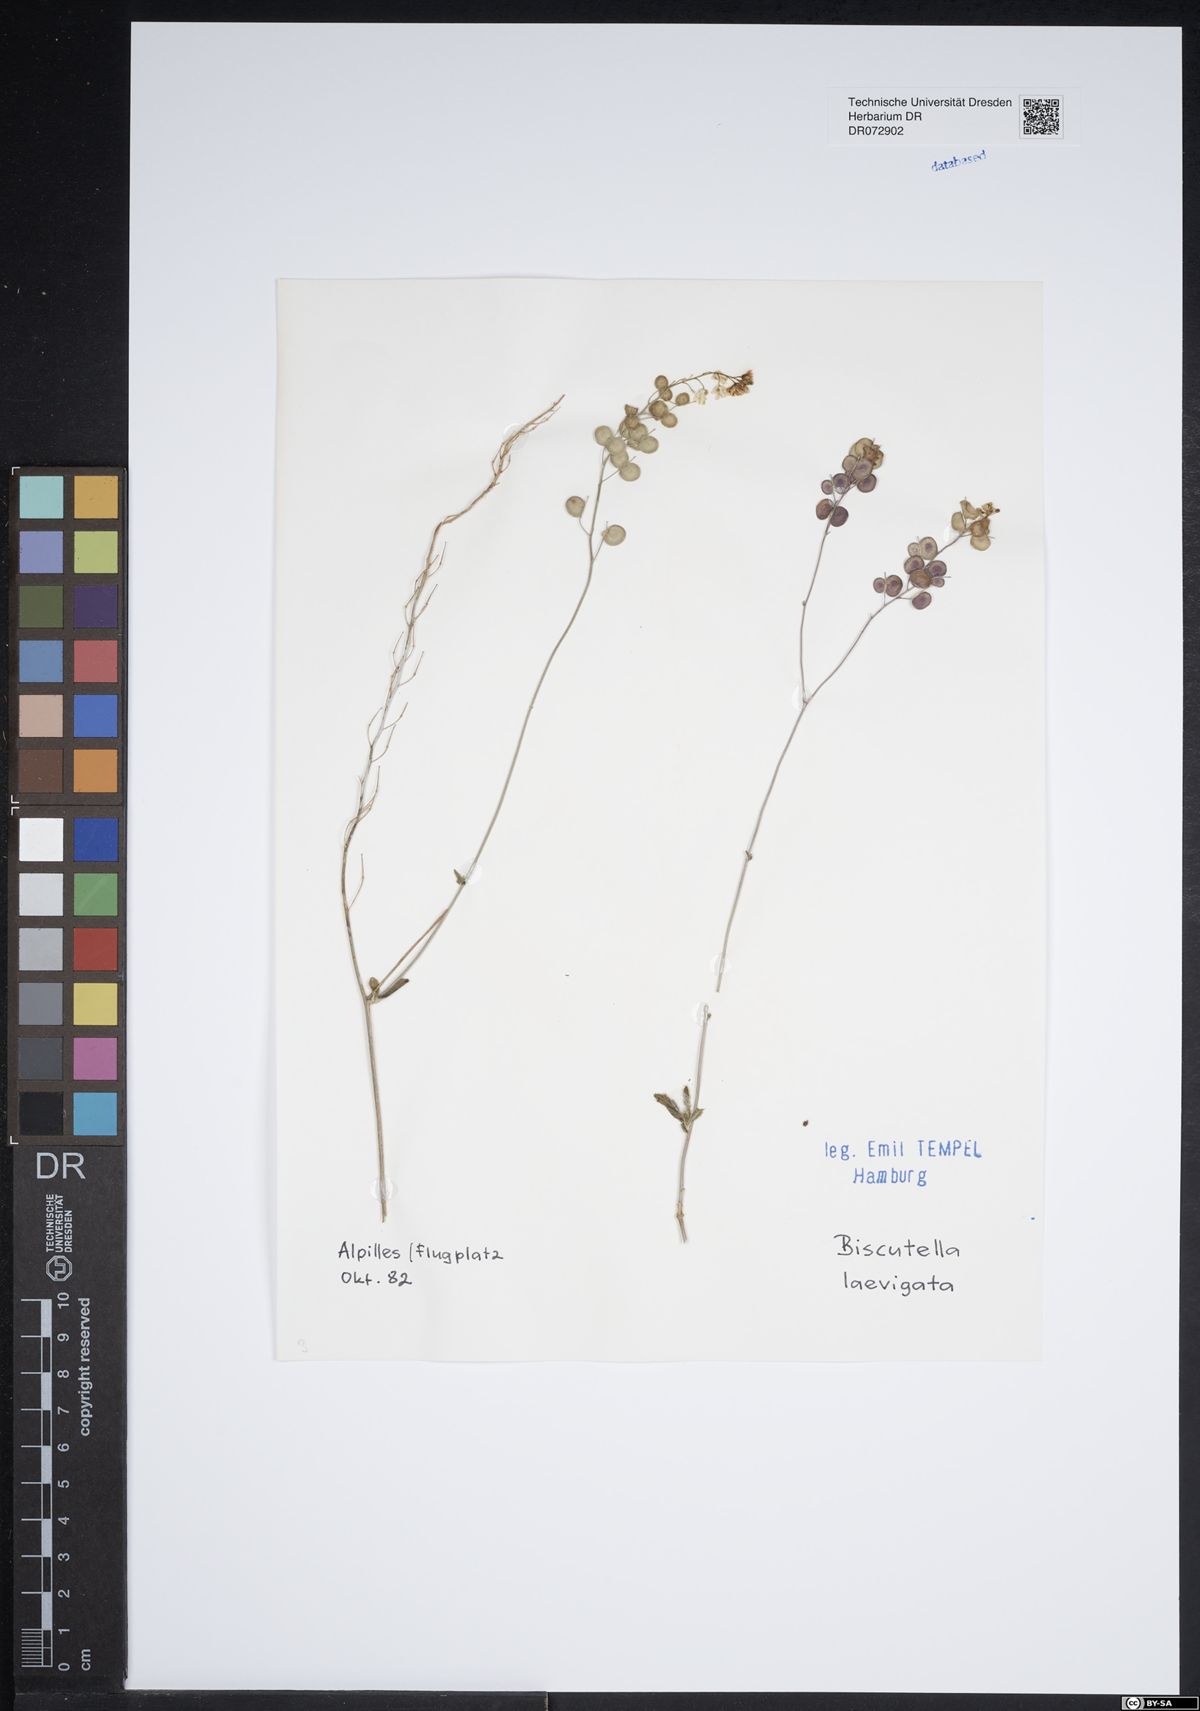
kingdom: Plantae
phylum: Tracheophyta
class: Magnoliopsida
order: Brassicales
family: Brassicaceae
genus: Biscutella
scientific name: Biscutella laevigata
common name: Buckler mustard
